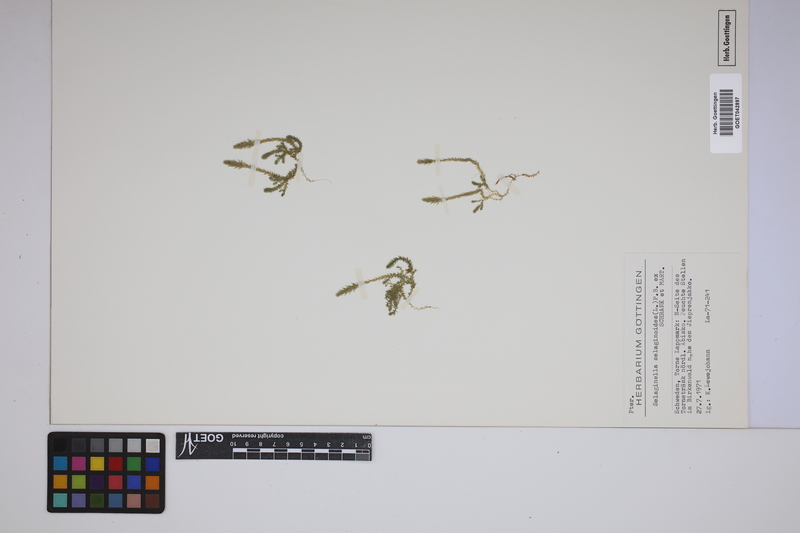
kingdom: Plantae
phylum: Tracheophyta
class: Lycopodiopsida
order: Selaginellales
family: Selaginellaceae
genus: Selaginella
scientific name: Selaginella selaginoides
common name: Prickly mountain-moss
